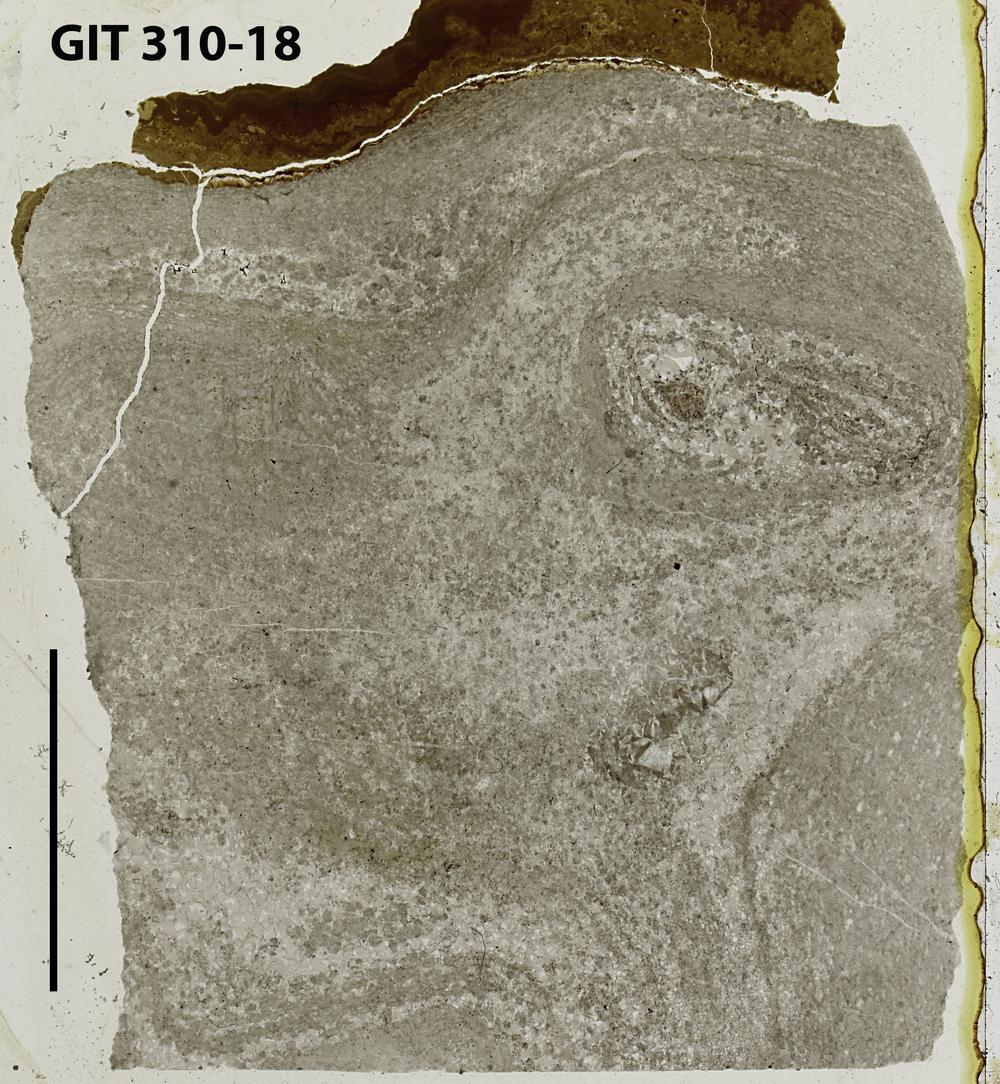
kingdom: Animalia
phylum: Porifera
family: Labechiidae
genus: Labechia
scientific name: Labechia
